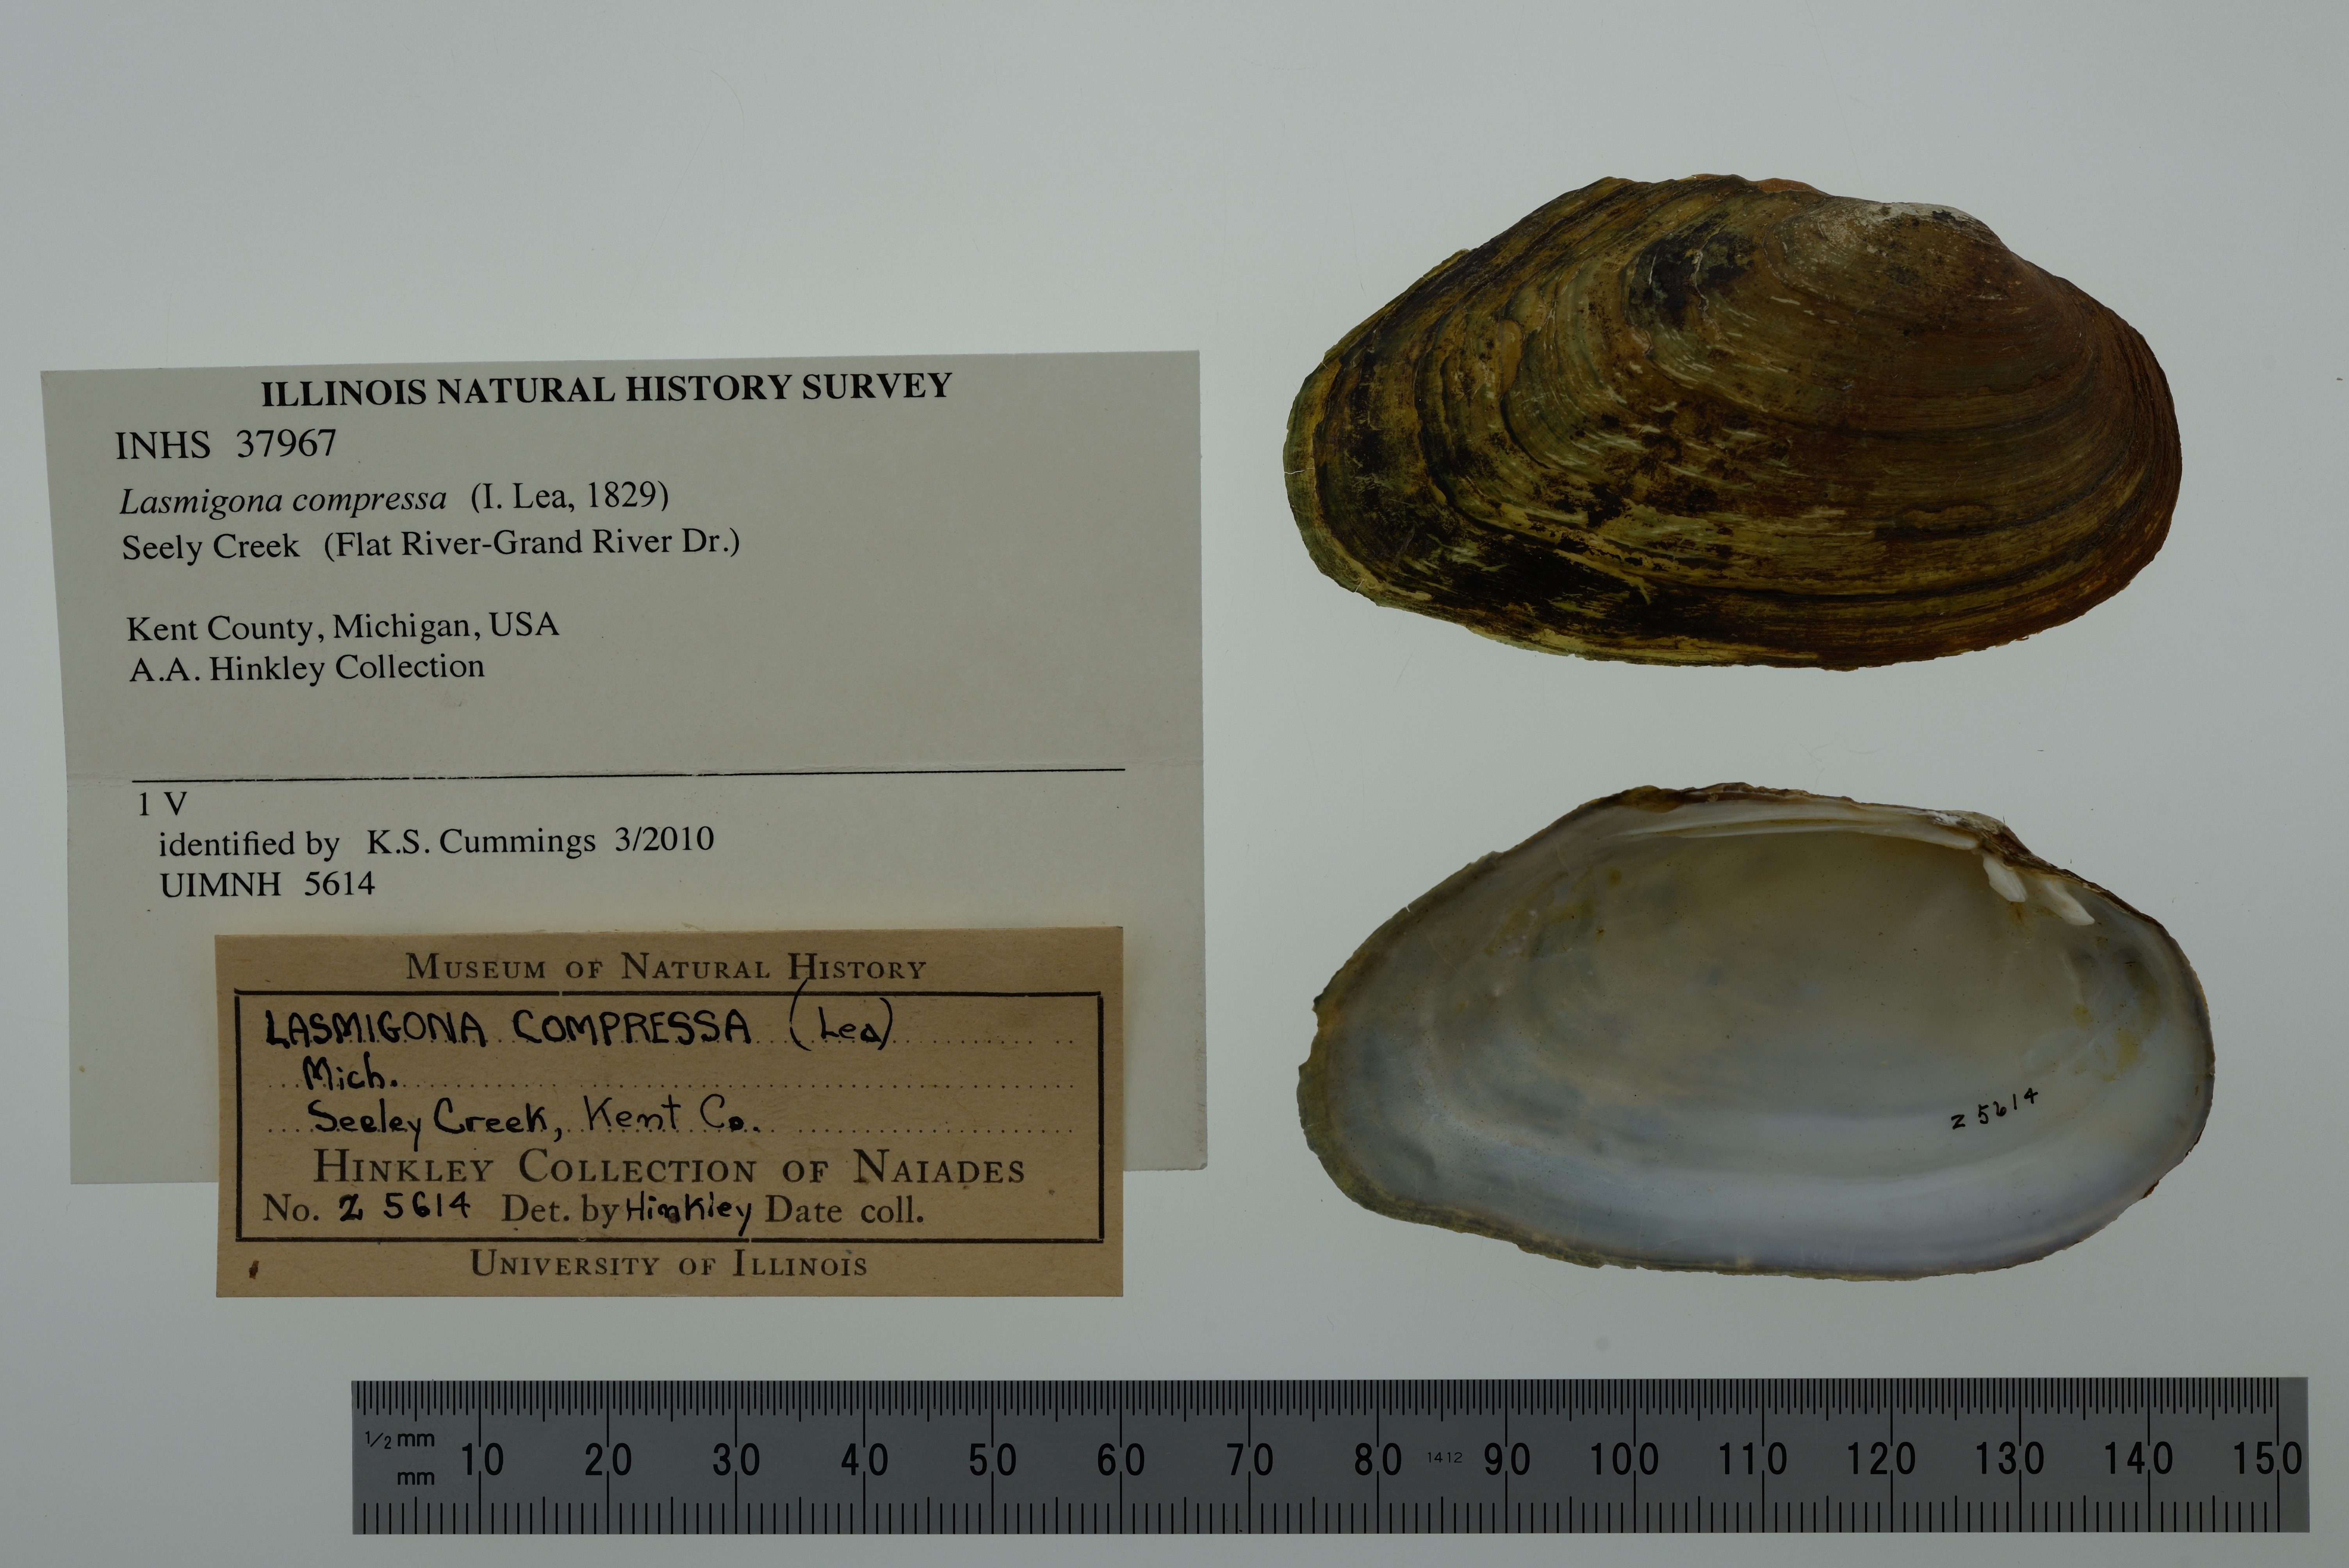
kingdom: Animalia
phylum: Mollusca
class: Bivalvia
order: Unionida
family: Unionidae
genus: Lasmigona
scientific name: Lasmigona compressa
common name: Creek heelsplitter
